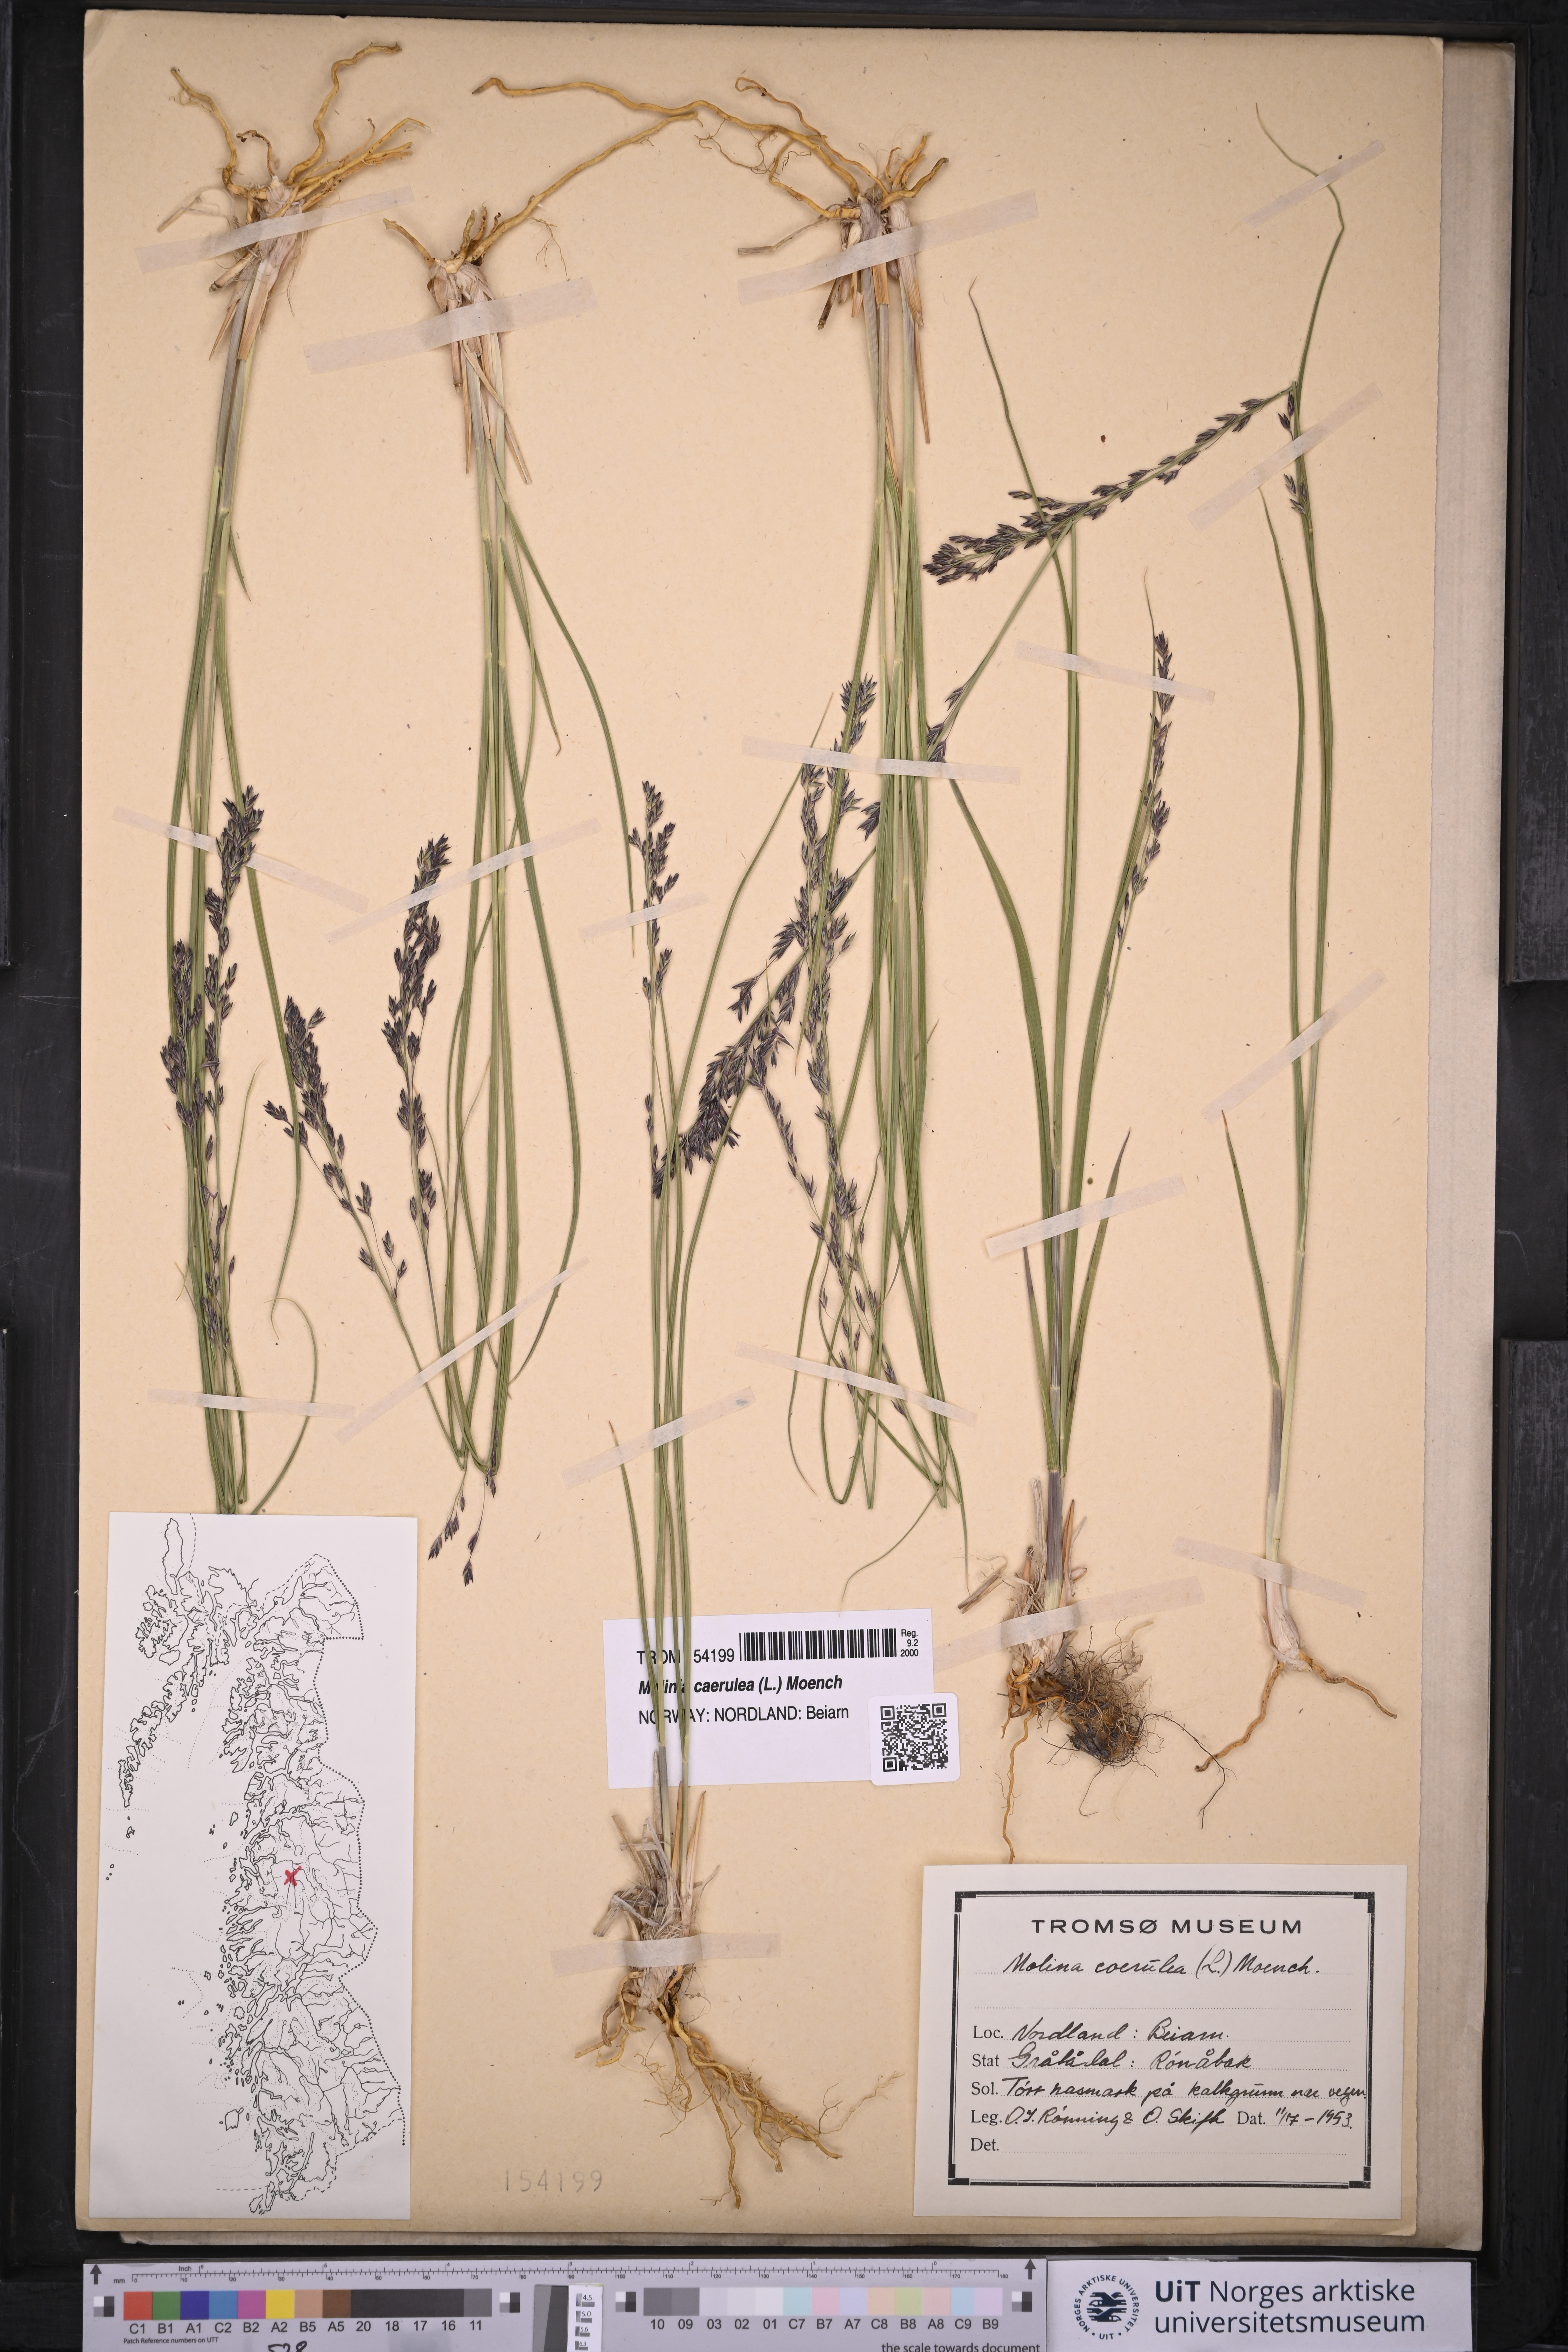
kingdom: Plantae
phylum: Tracheophyta
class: Liliopsida
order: Poales
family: Poaceae
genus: Molinia
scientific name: Molinia caerulea
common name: Purple moor-grass
